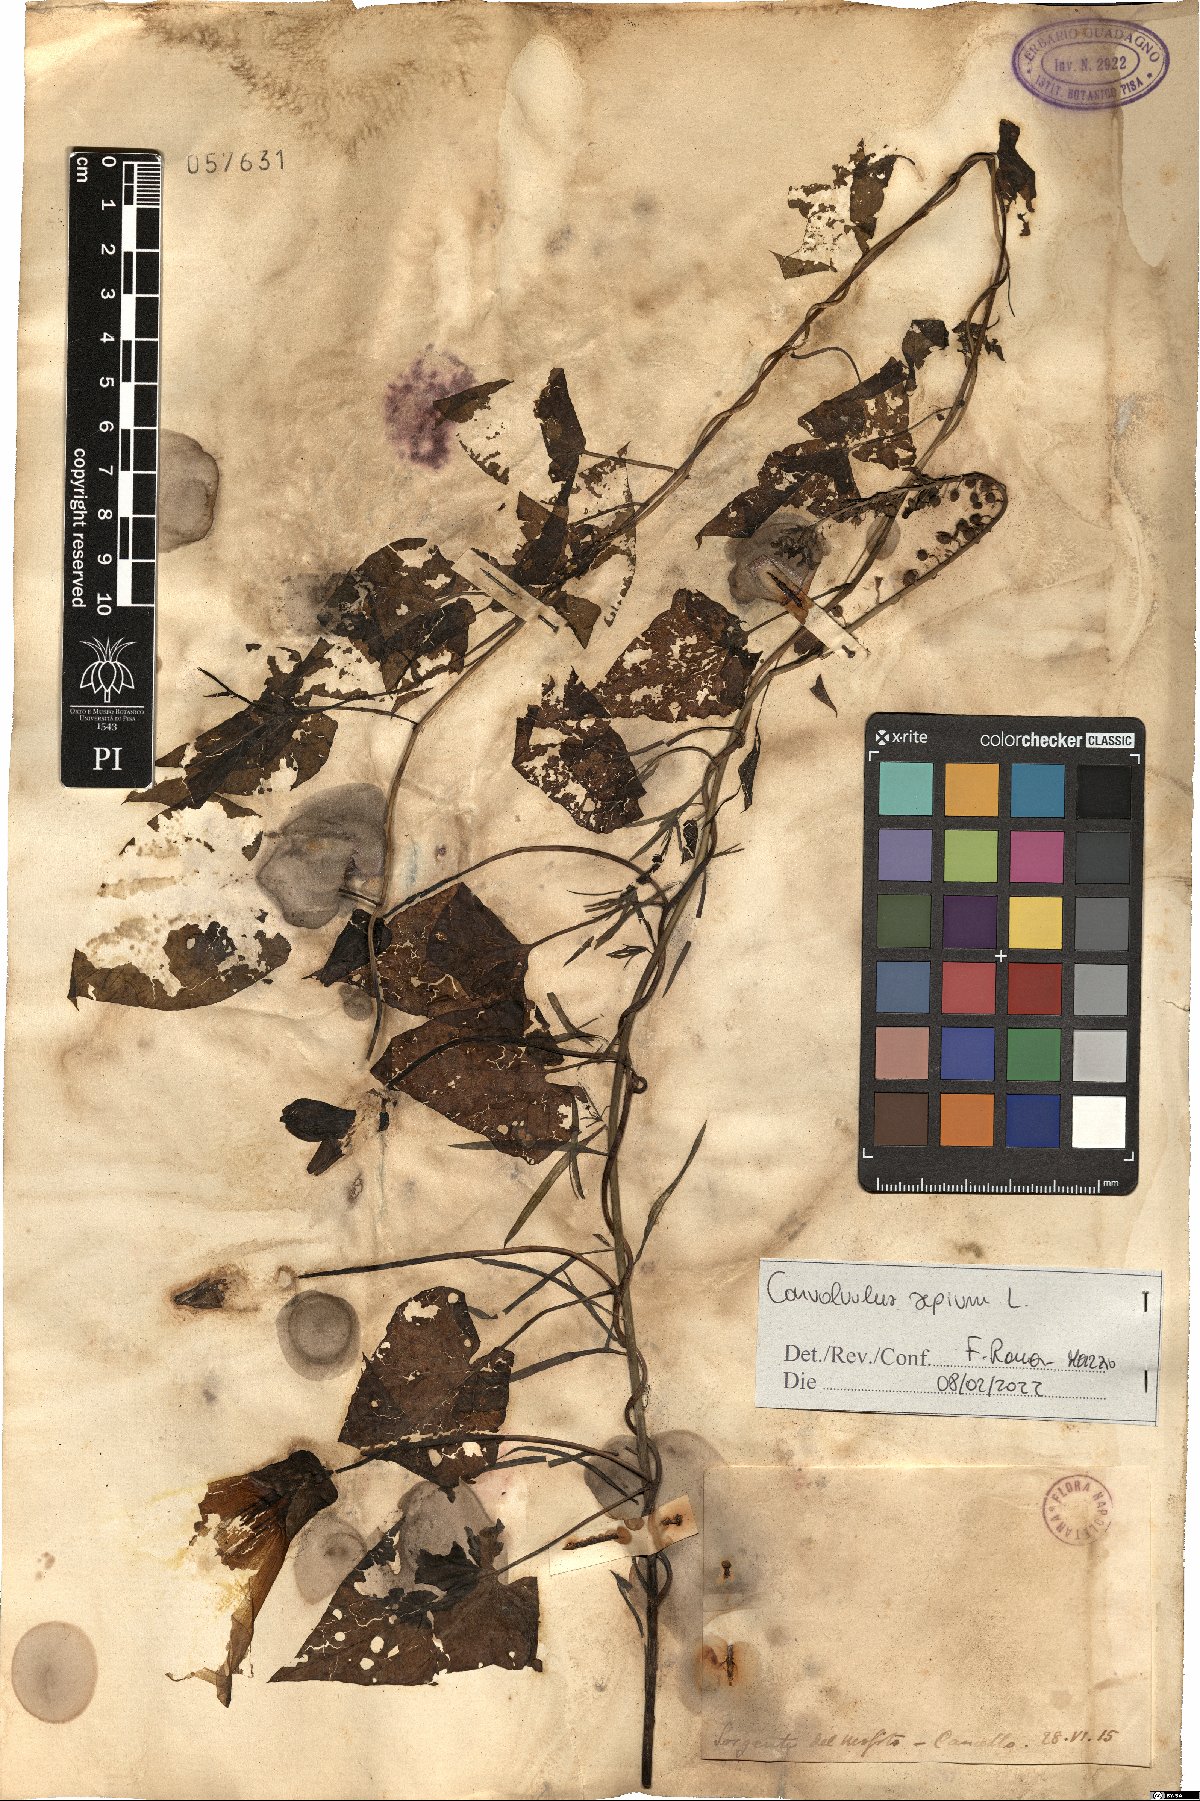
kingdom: Plantae
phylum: Tracheophyta
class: Magnoliopsida
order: Solanales
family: Convolvulaceae
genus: Calystegia
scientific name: Calystegia sepium
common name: Hedge bindweed
